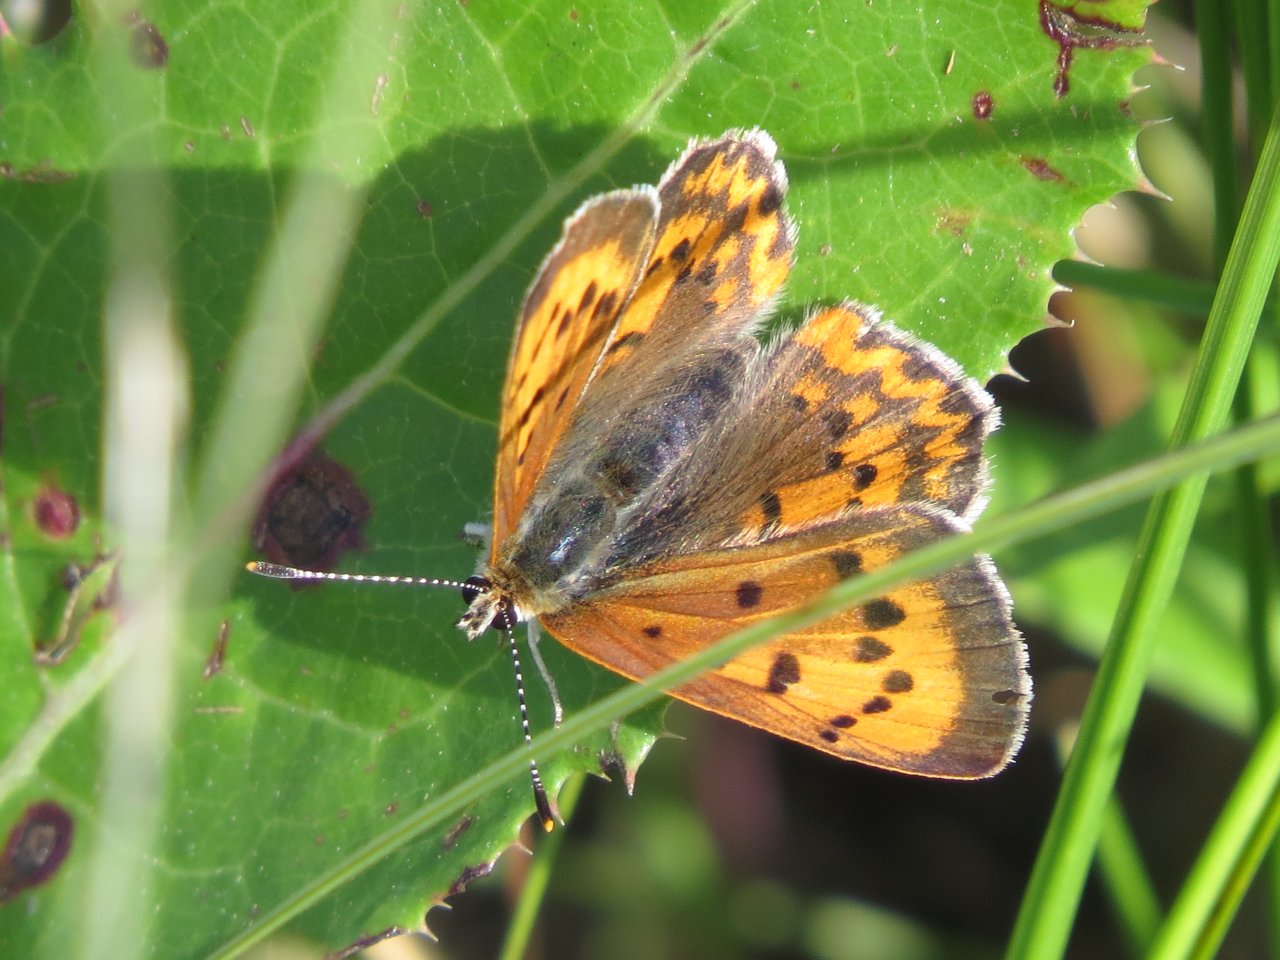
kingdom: Animalia
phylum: Arthropoda
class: Insecta
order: Lepidoptera
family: Lycaenidae
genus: Epidemia
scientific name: Epidemia dorcas
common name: Dorcas Copper
